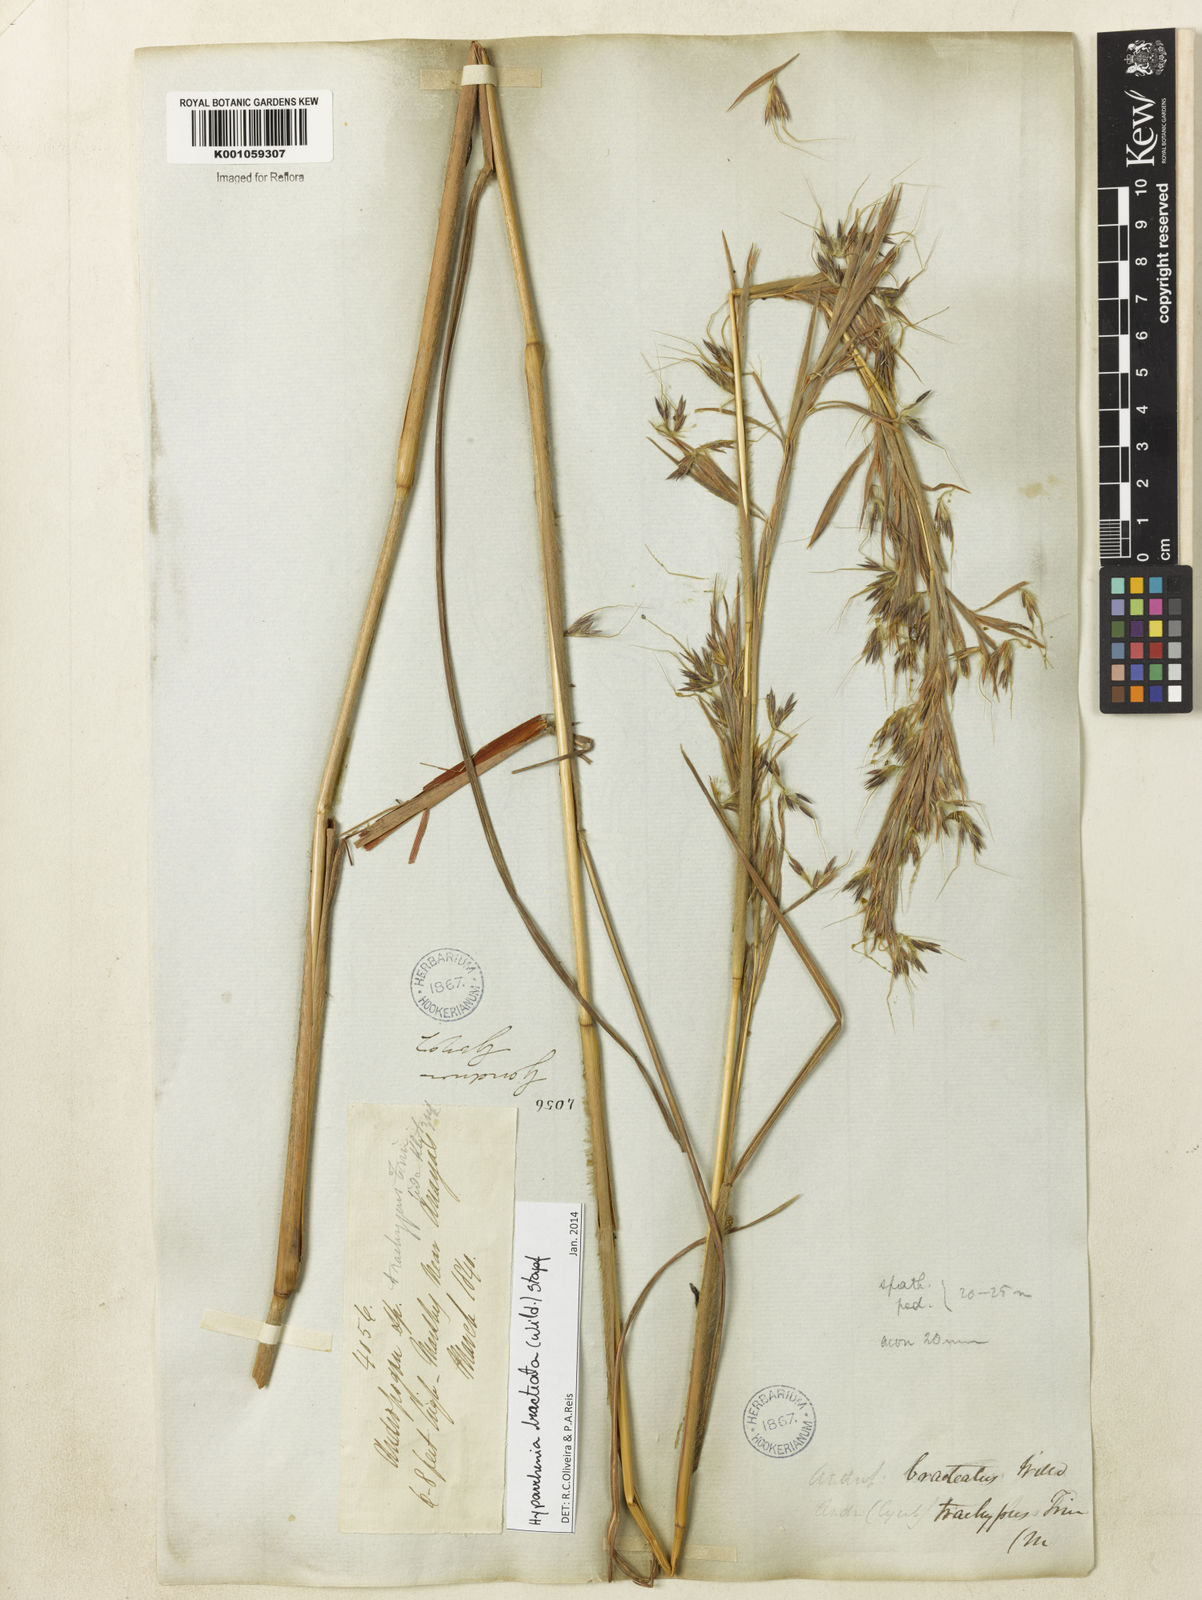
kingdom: Plantae
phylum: Tracheophyta
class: Liliopsida
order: Poales
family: Poaceae
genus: Hyparrhenia
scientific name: Hyparrhenia bracteata
